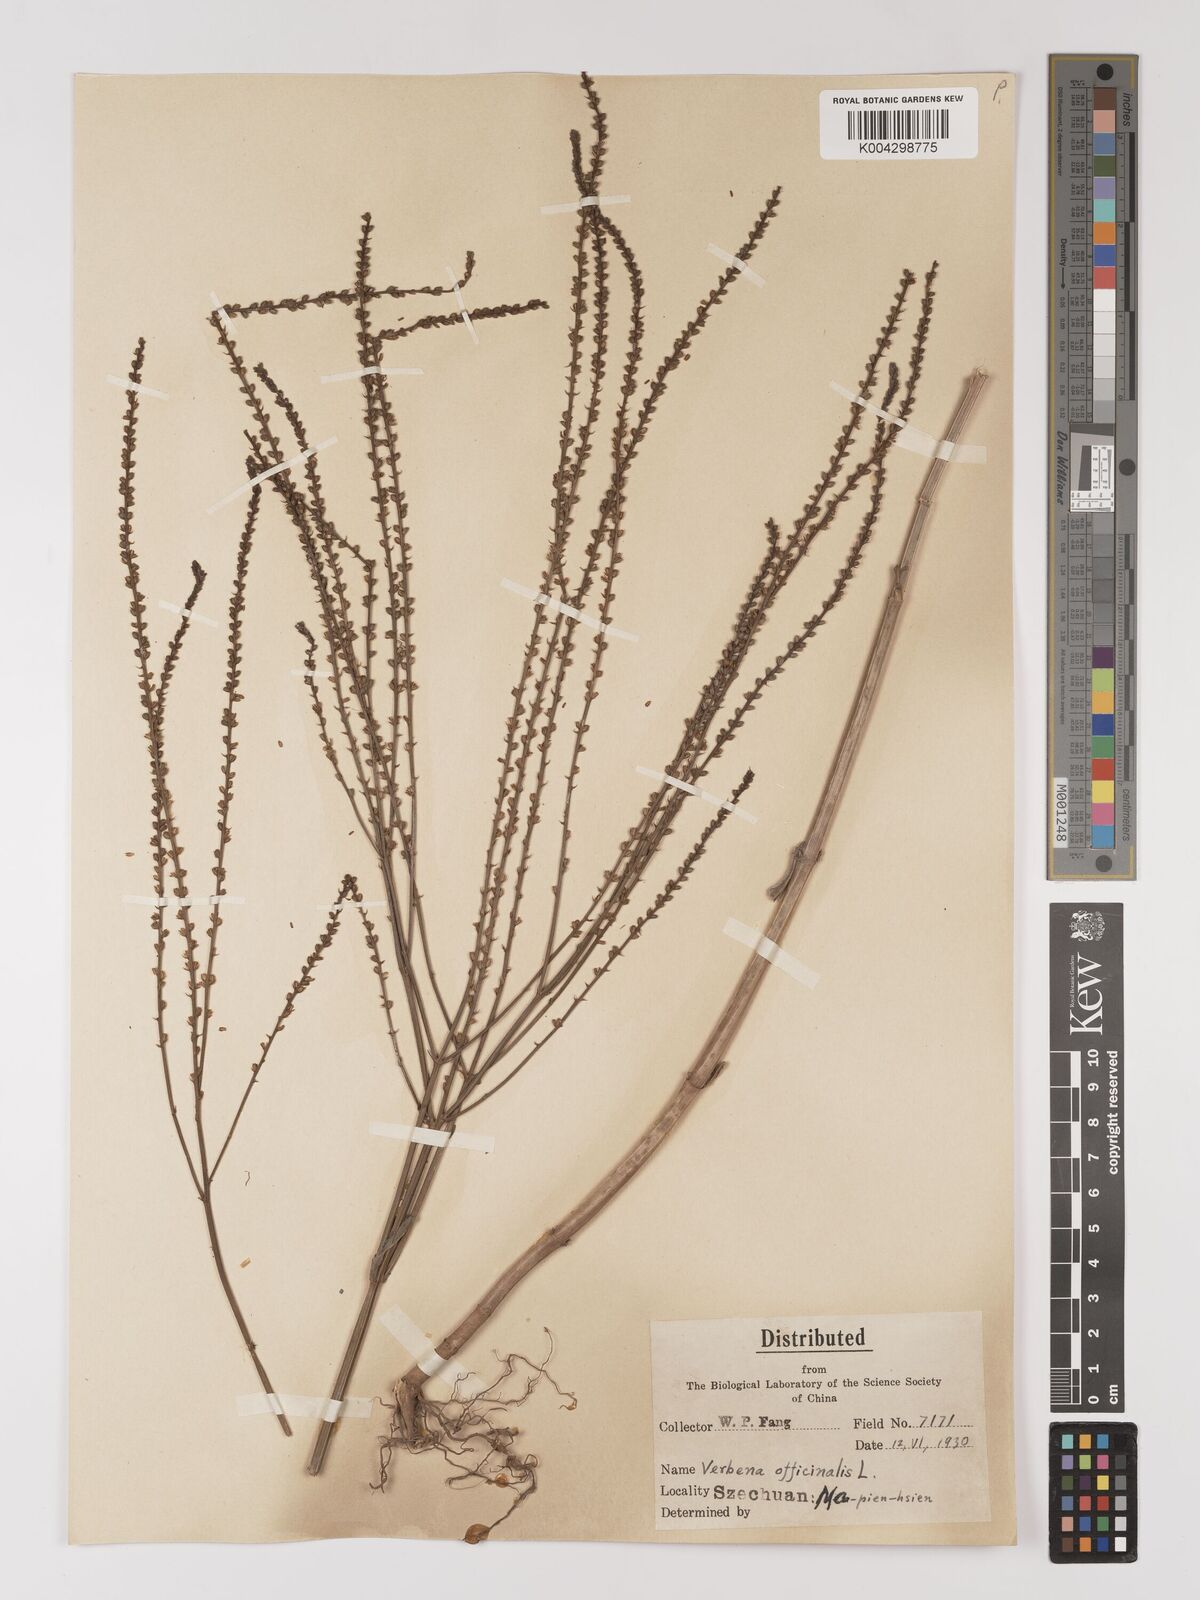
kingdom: Plantae
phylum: Tracheophyta
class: Magnoliopsida
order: Lamiales
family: Verbenaceae
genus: Verbena
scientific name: Verbena officinalis
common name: Vervain
